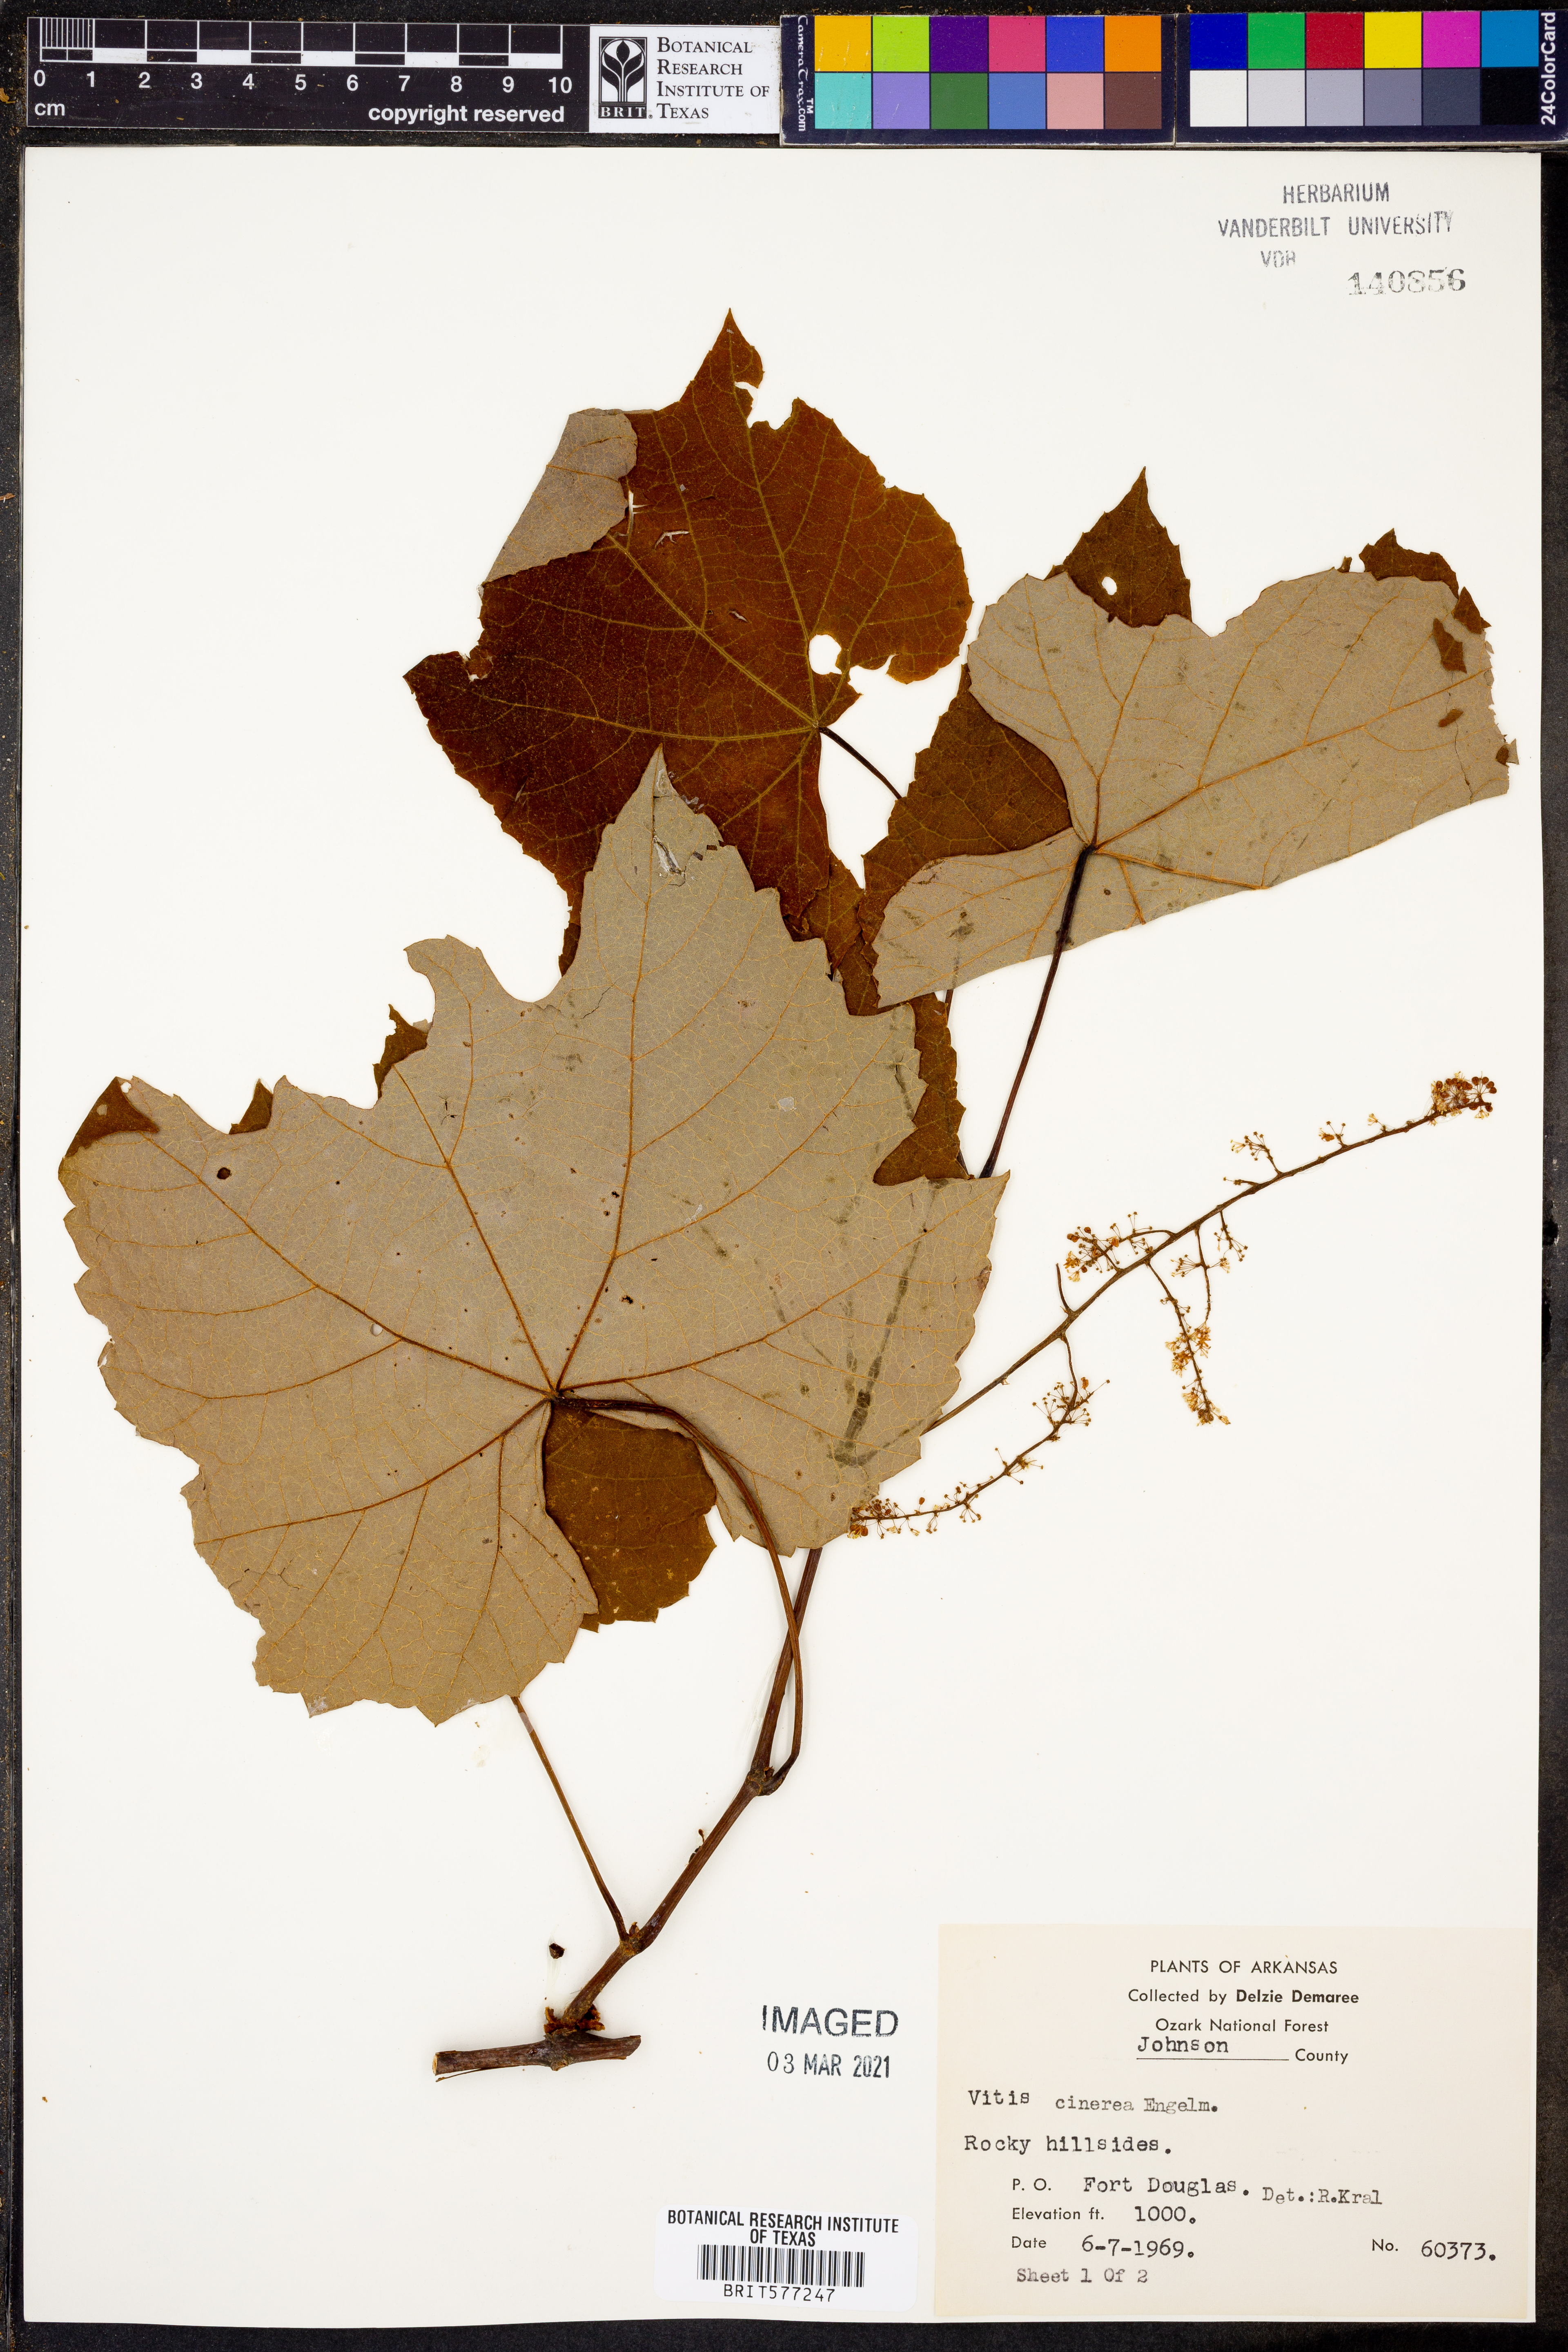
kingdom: Plantae
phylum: Tracheophyta
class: Magnoliopsida
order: Vitales
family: Vitaceae
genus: Vitis
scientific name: Vitis cinerea
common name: Ashy grape
